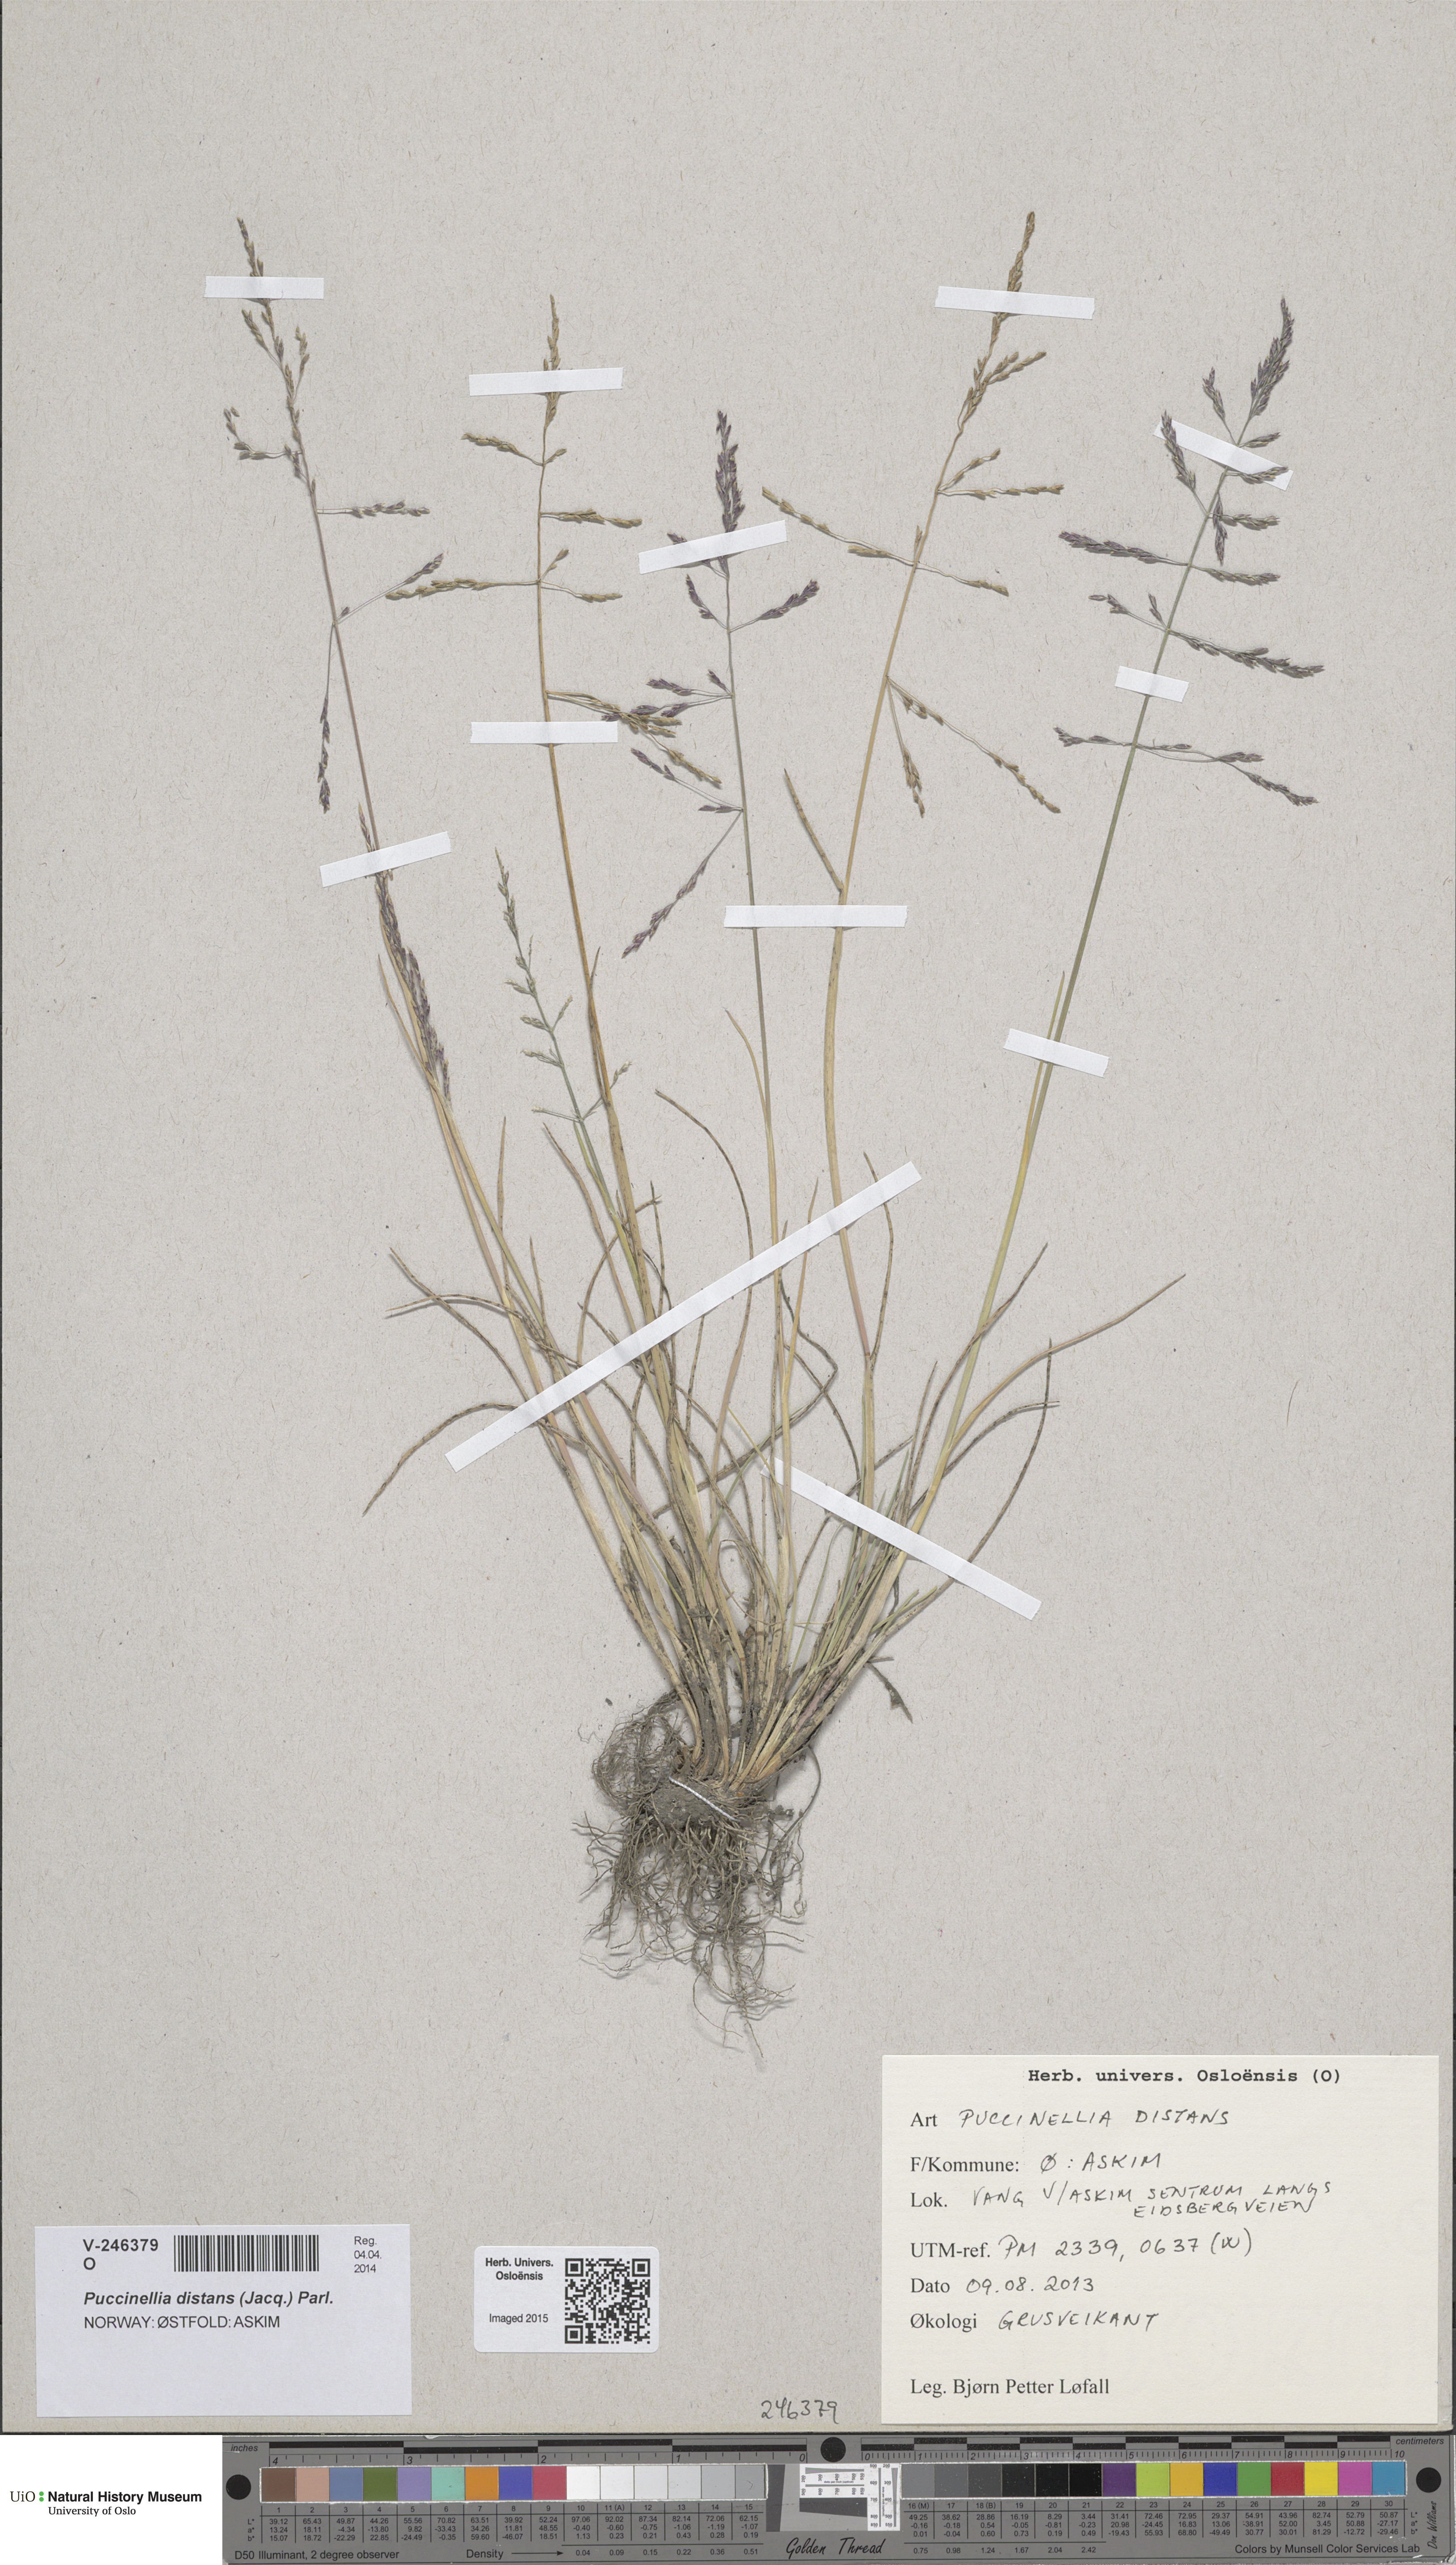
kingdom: Plantae
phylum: Tracheophyta
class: Liliopsida
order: Poales
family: Poaceae
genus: Puccinellia
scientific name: Puccinellia distans
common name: Weeping alkaligrass
